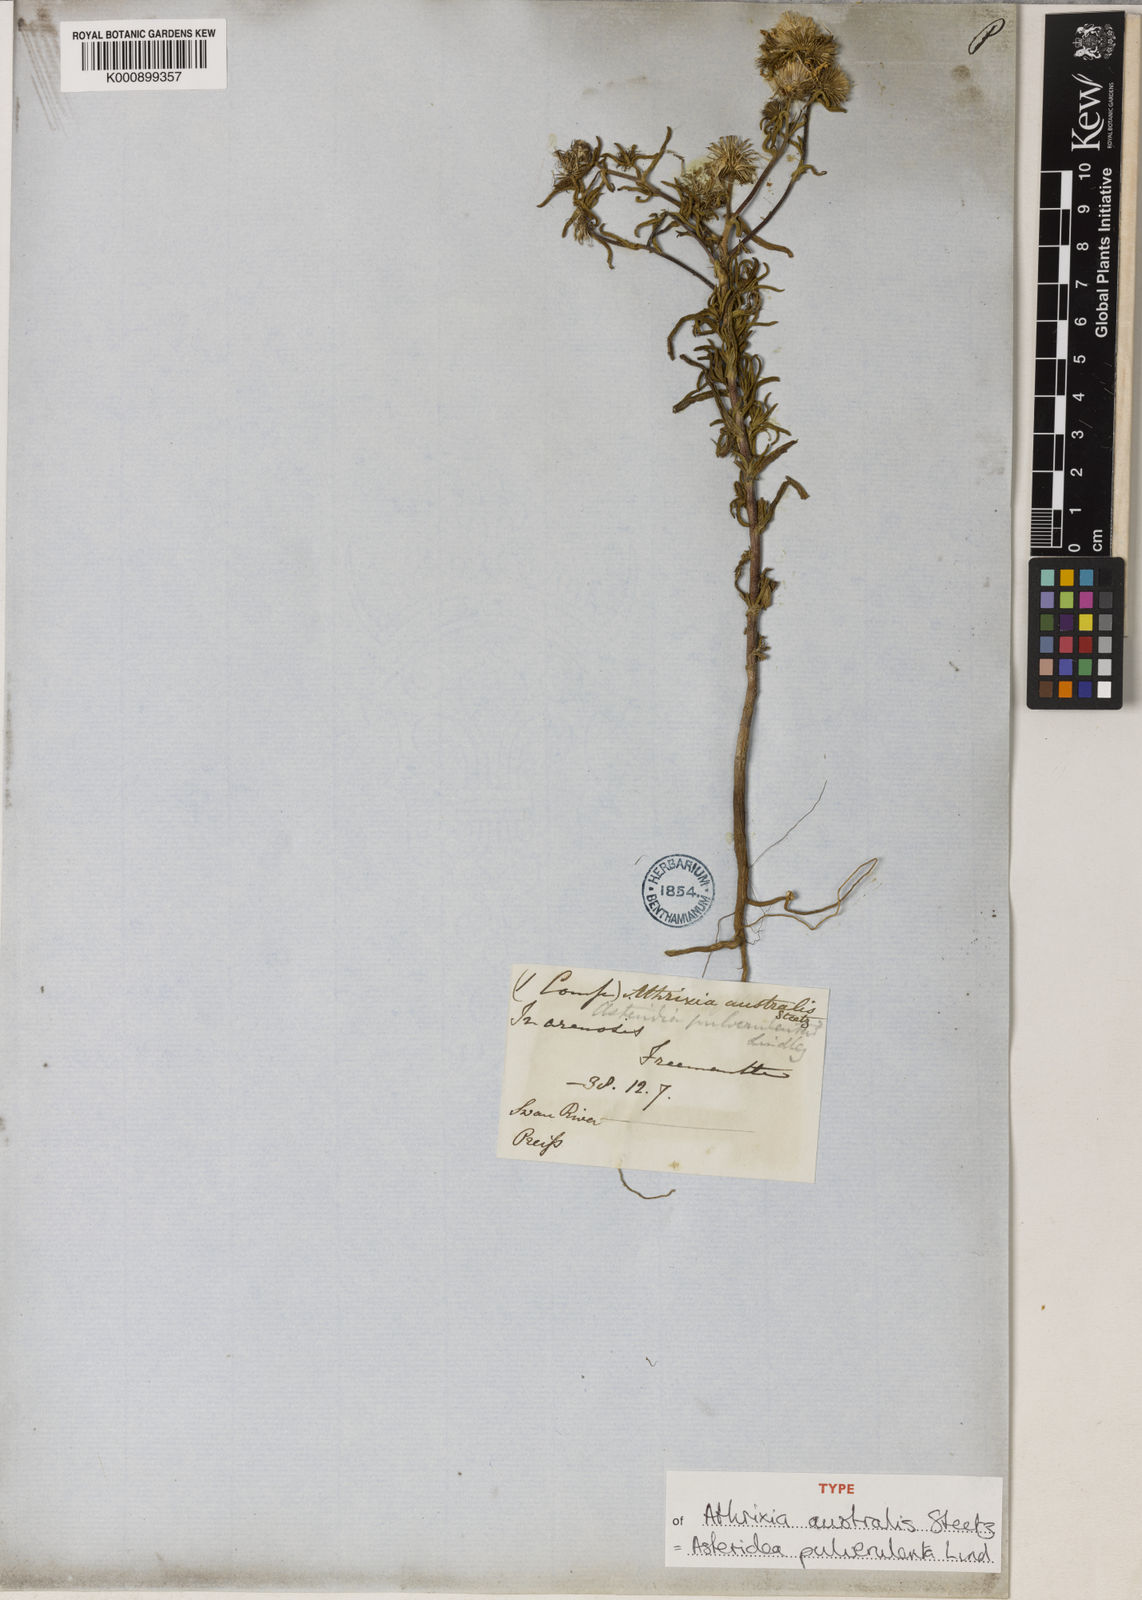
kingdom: Plantae
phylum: Tracheophyta
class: Magnoliopsida
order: Asterales
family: Asteraceae
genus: Asteridea
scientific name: Asteridea pulverulenta
